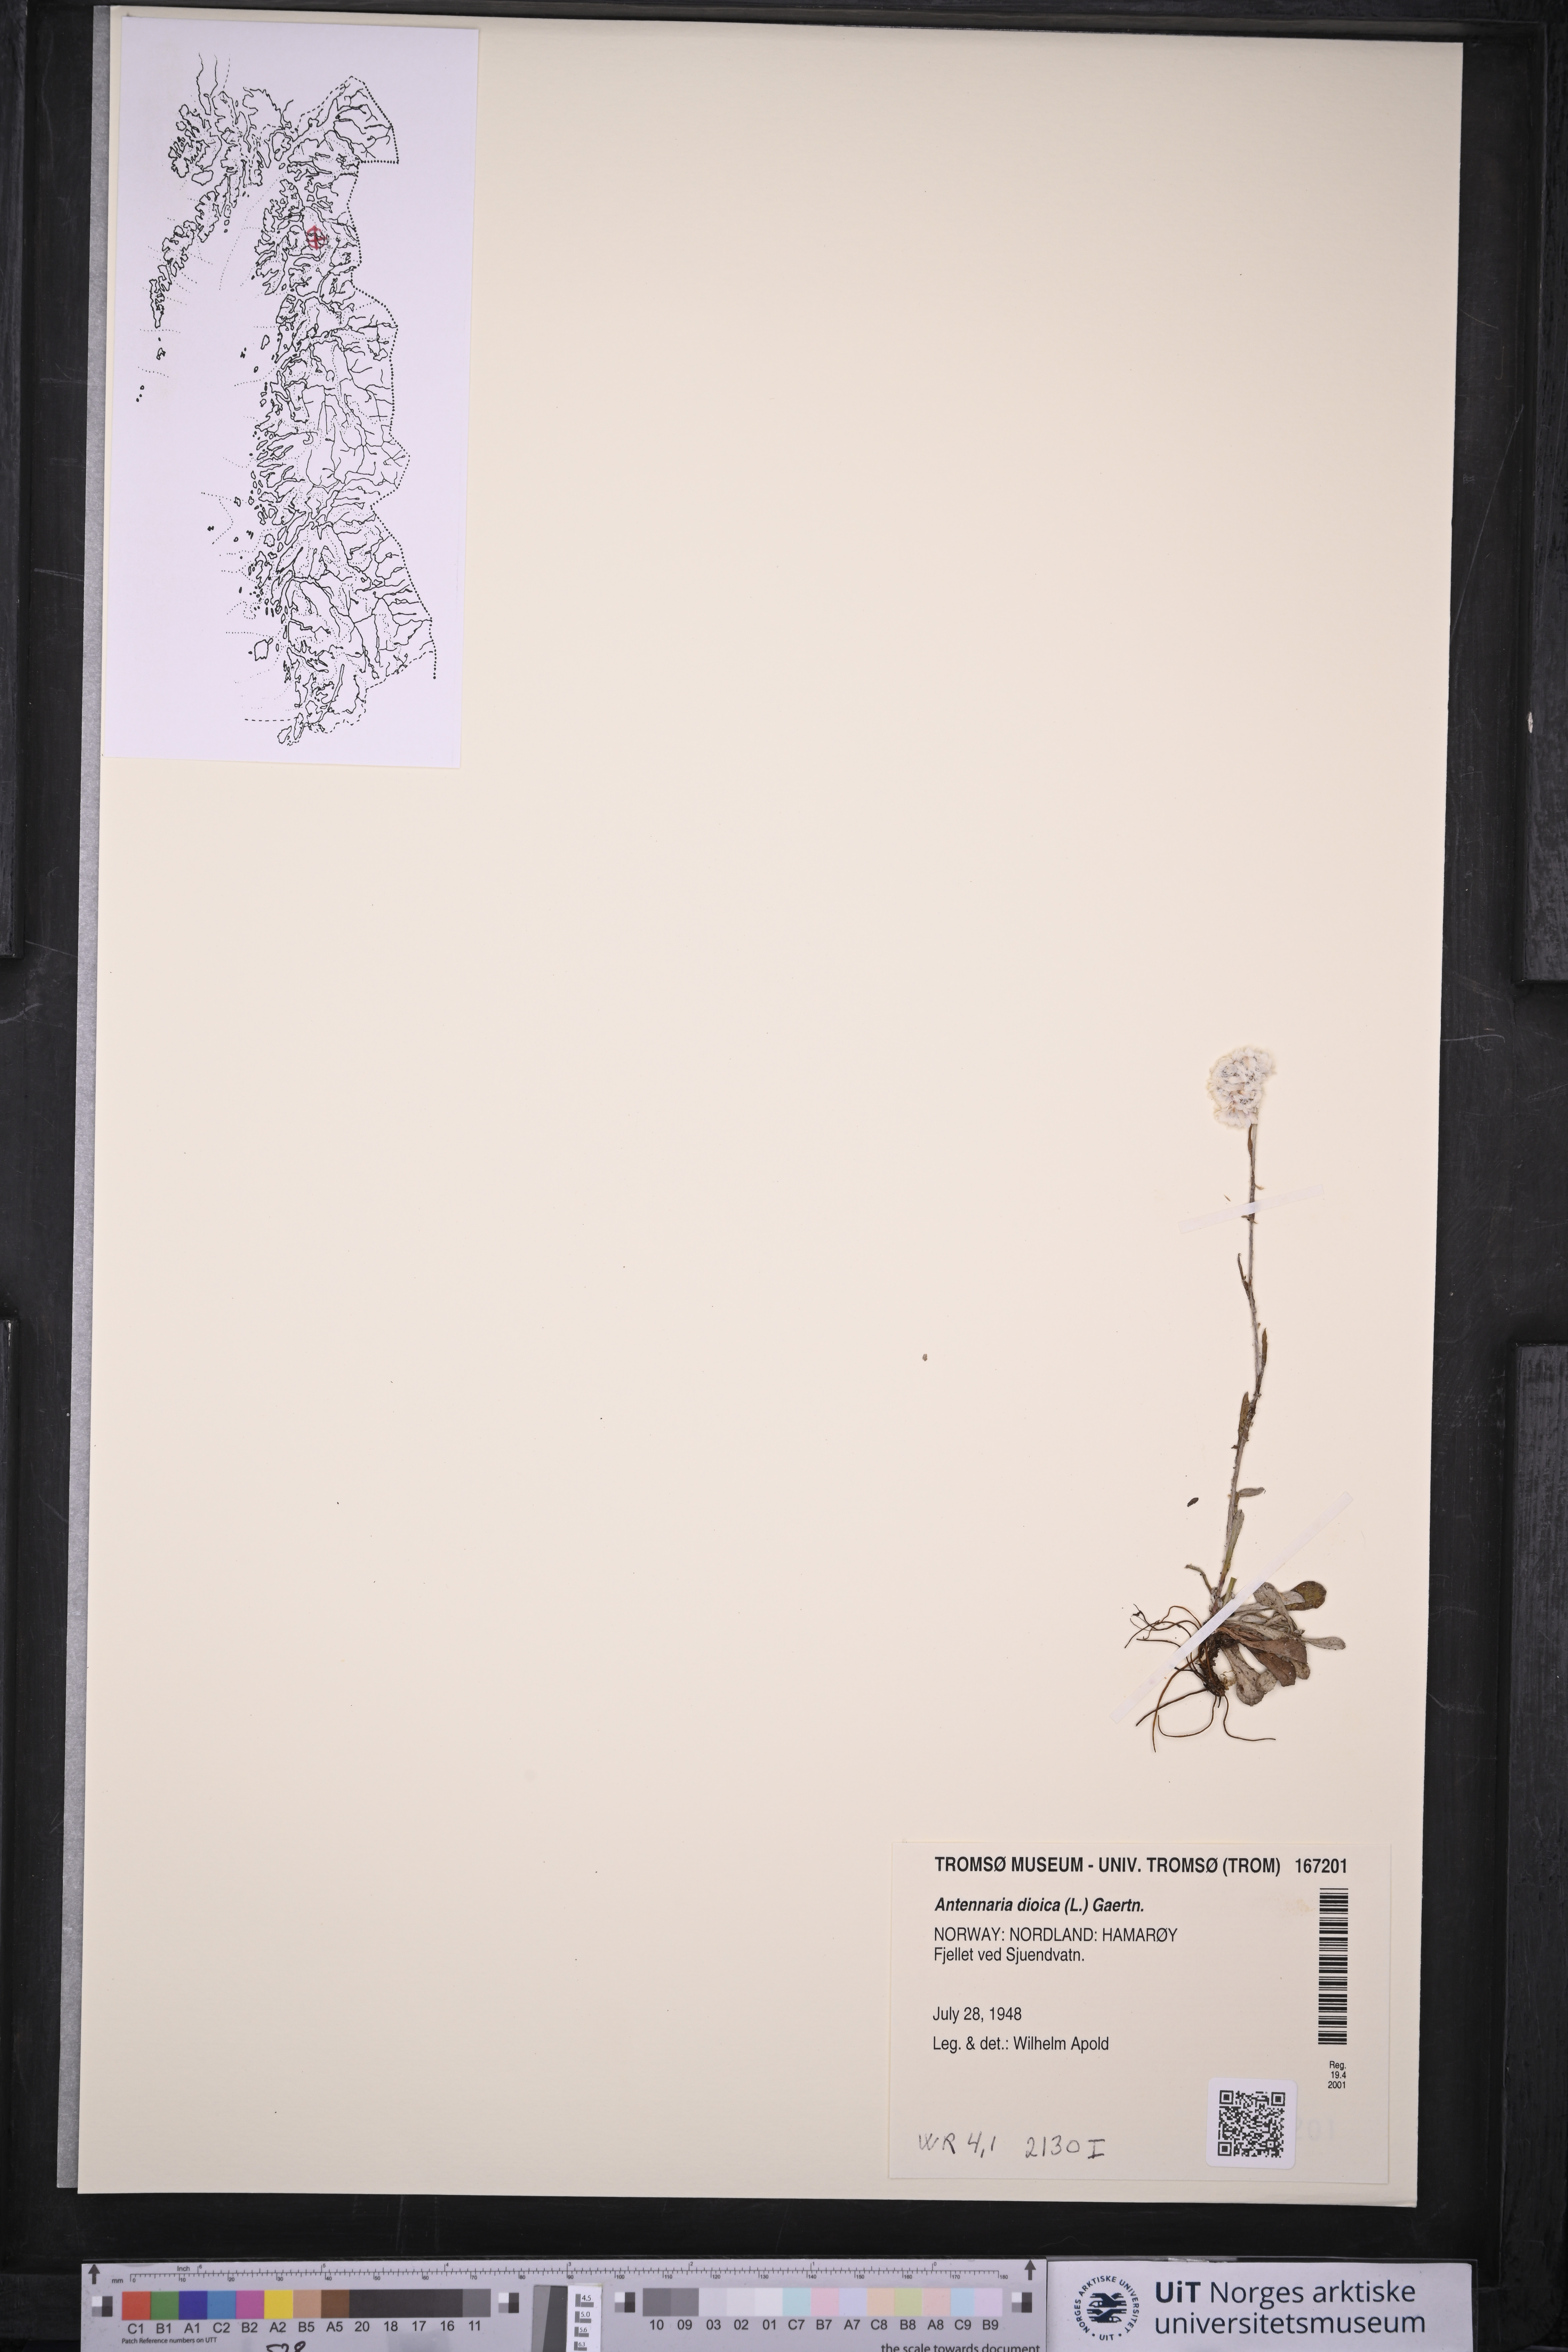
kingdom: Plantae
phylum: Tracheophyta
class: Magnoliopsida
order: Asterales
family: Asteraceae
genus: Antennaria
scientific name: Antennaria dioica
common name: Mountain everlasting
